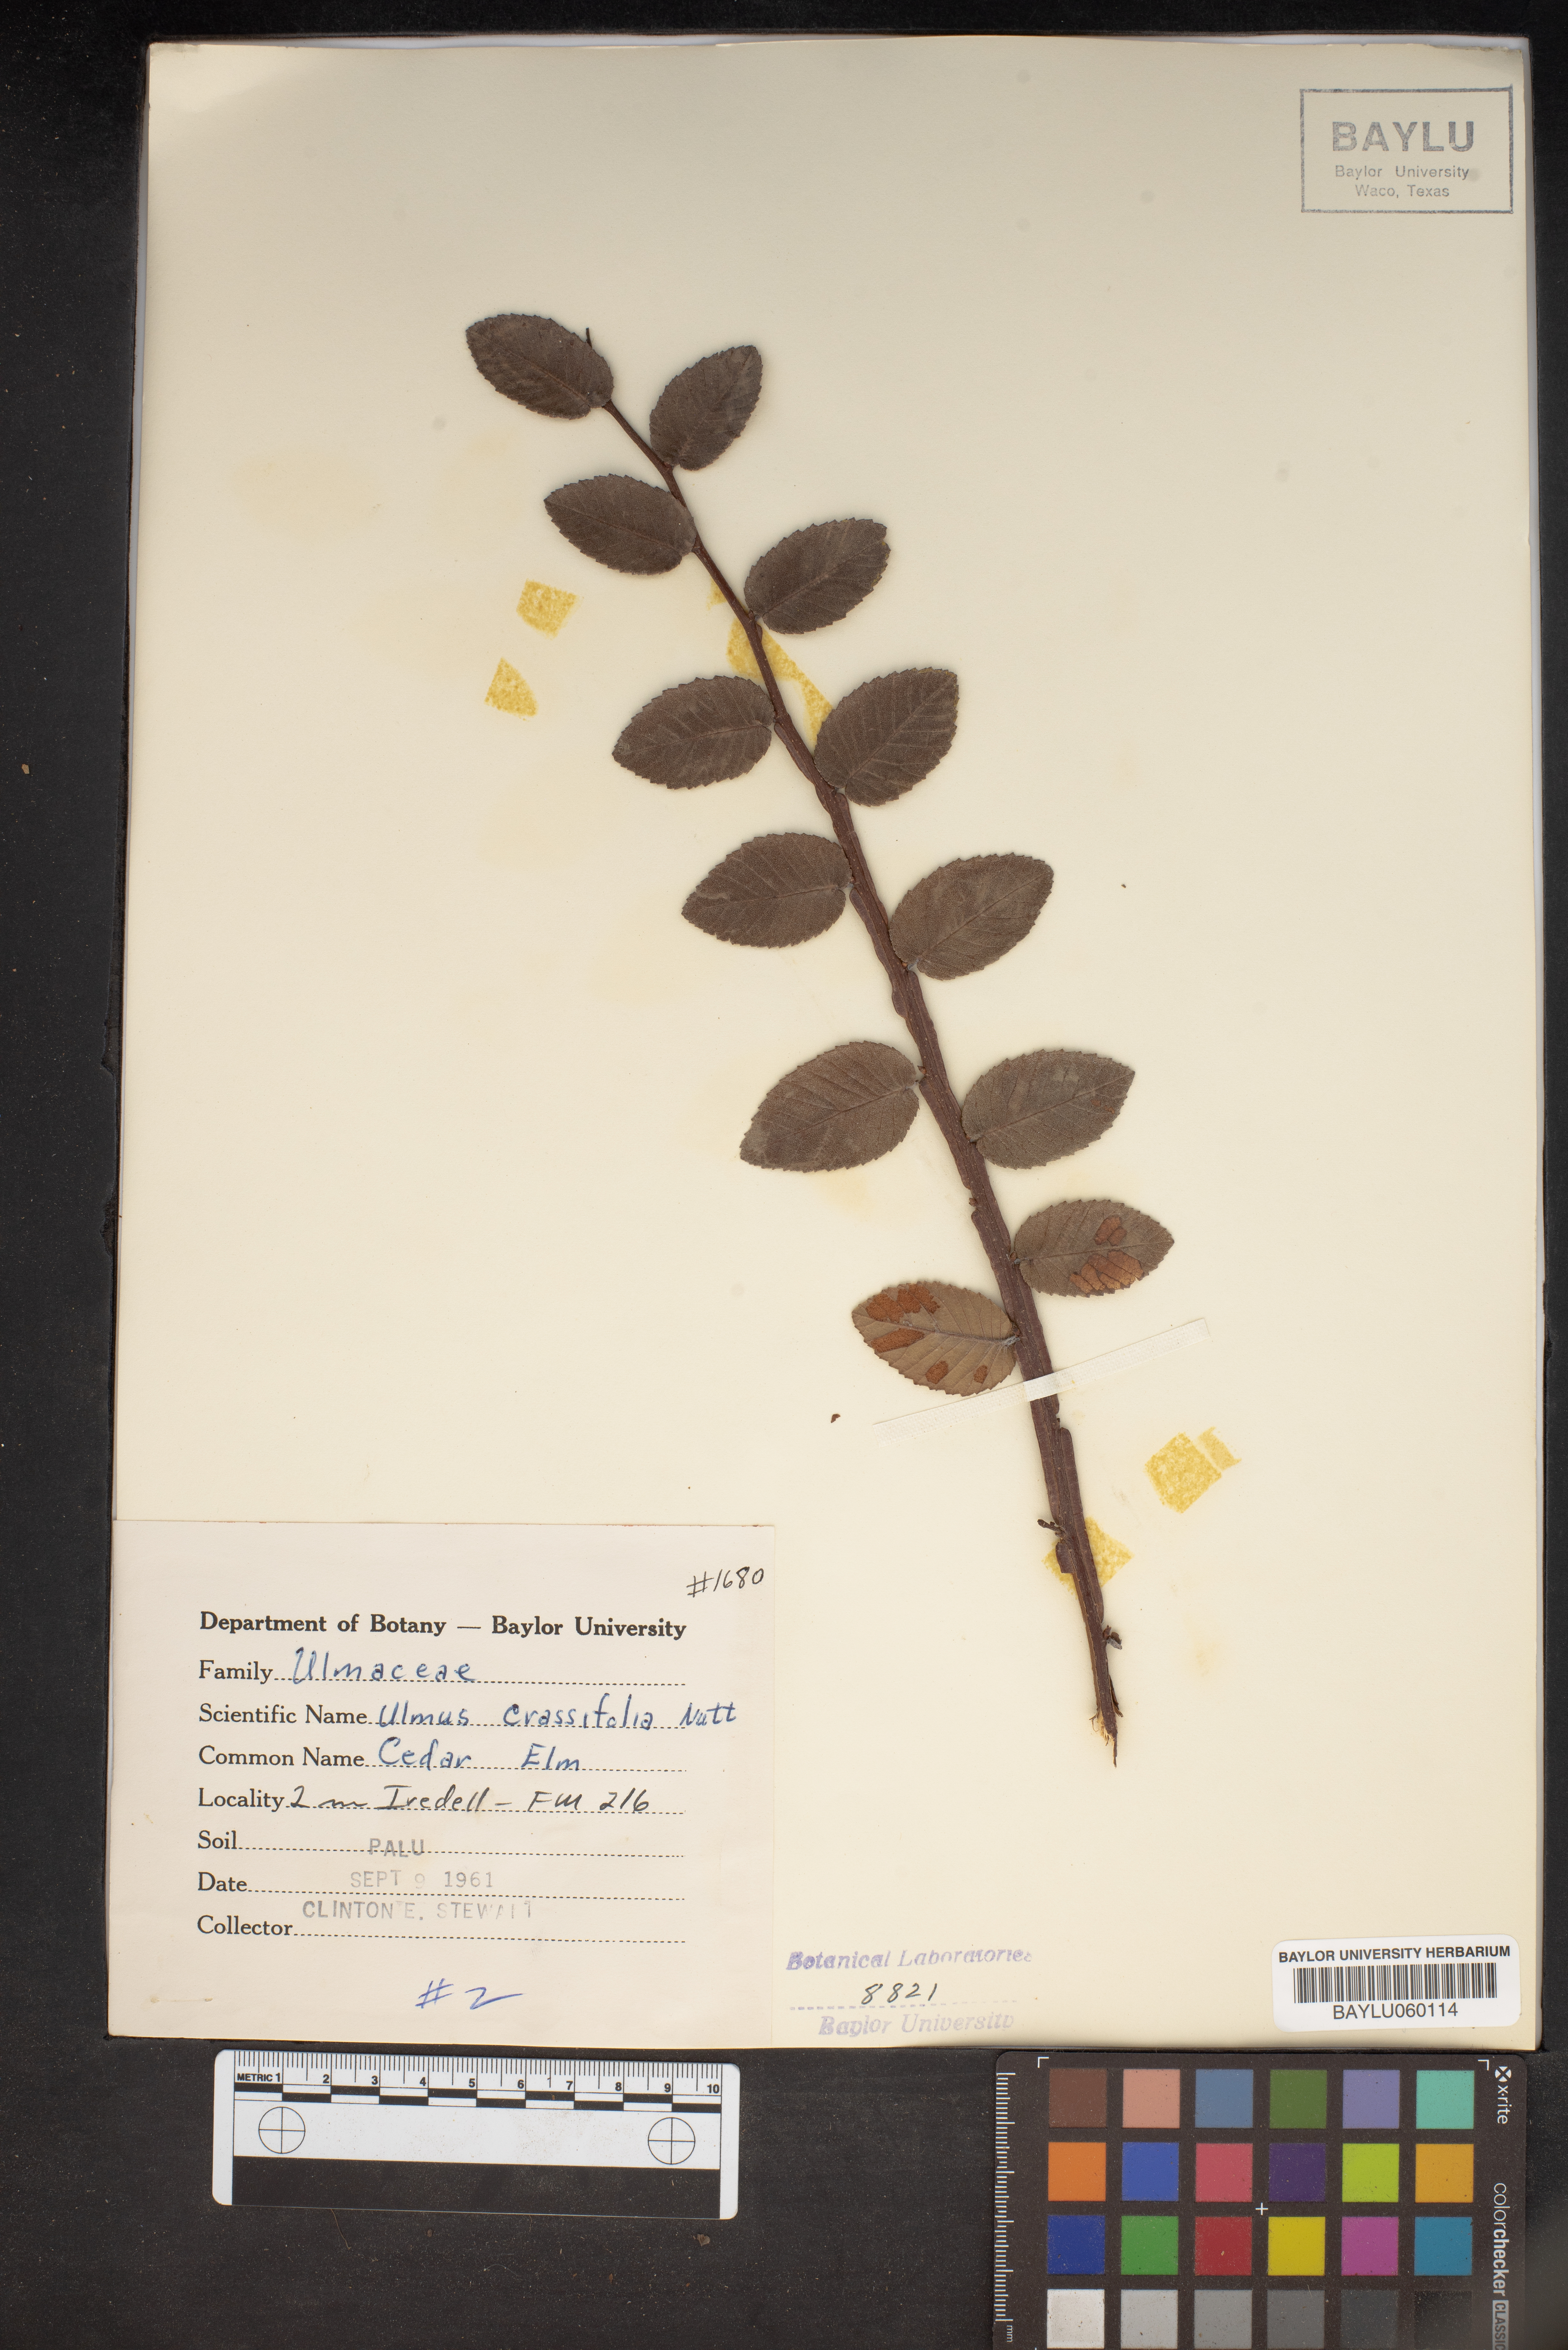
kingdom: Plantae
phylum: Tracheophyta
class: Magnoliopsida
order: Rosales
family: Ulmaceae
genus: Ulmus
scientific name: Ulmus crassifolia
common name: Basket elm
